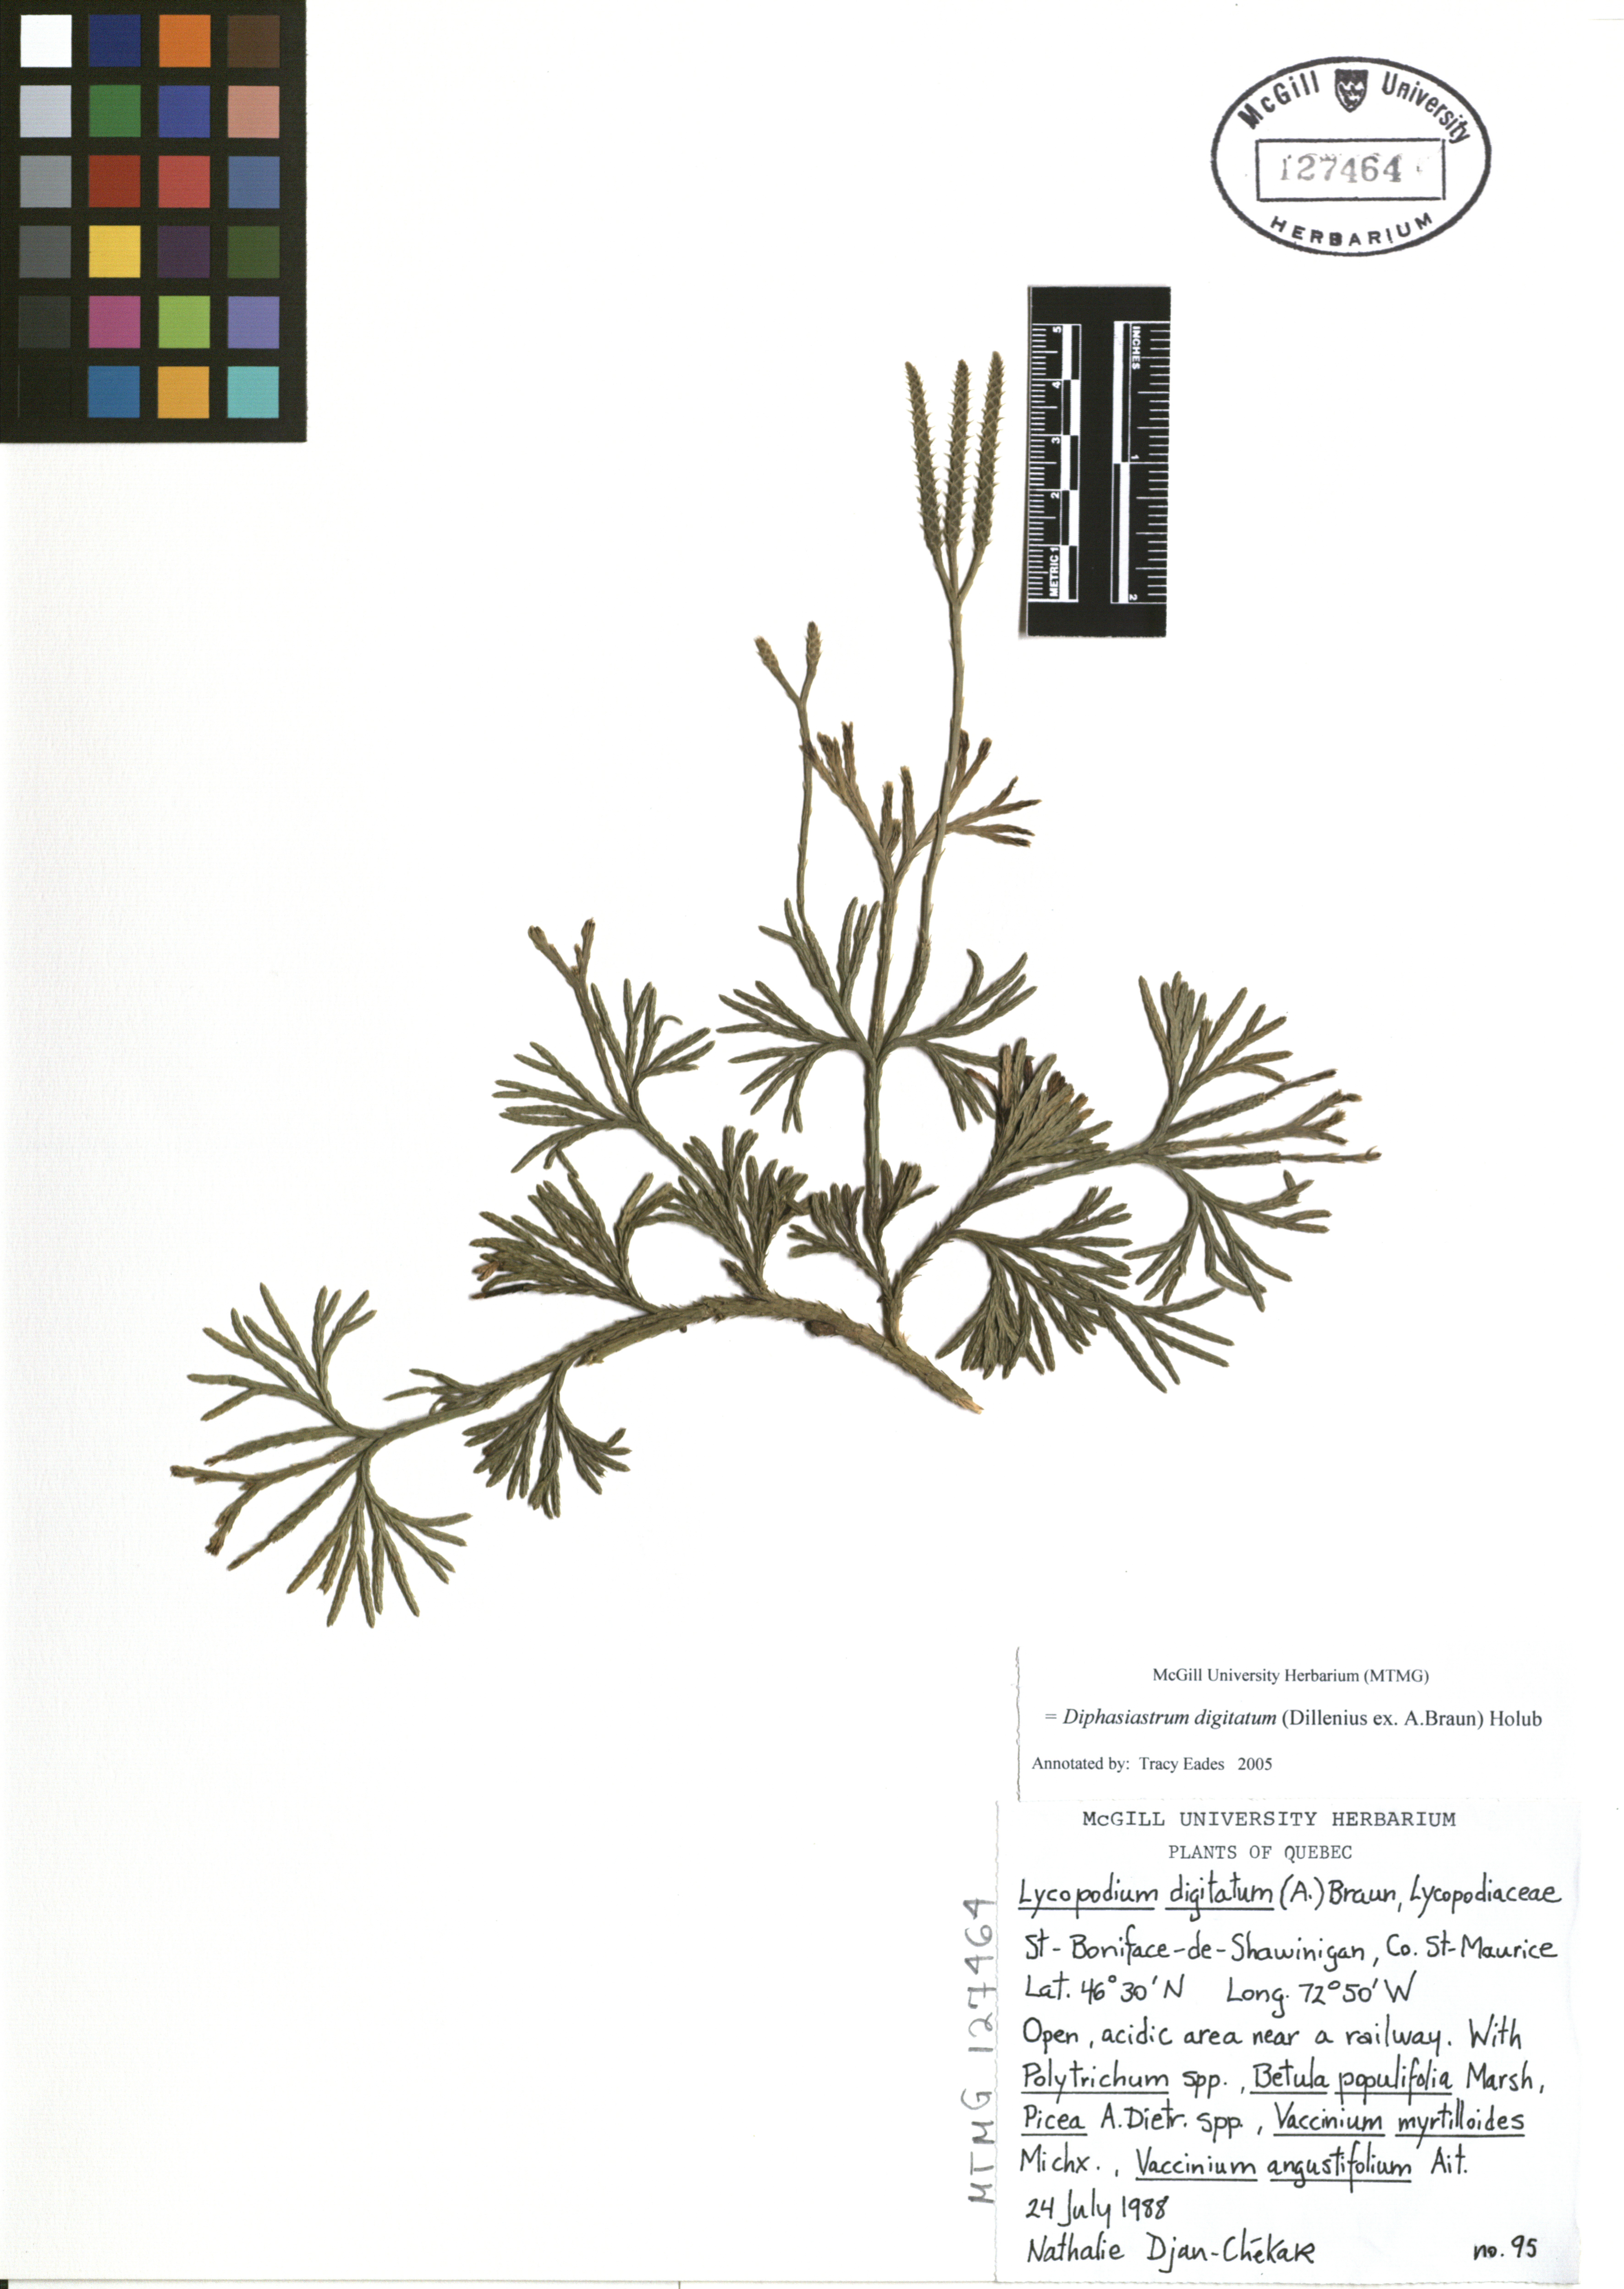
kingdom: Plantae
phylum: Tracheophyta
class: Lycopodiopsida
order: Lycopodiales
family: Lycopodiaceae
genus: Diphasiastrum
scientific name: Diphasiastrum digitatum
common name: Southern running-pine
